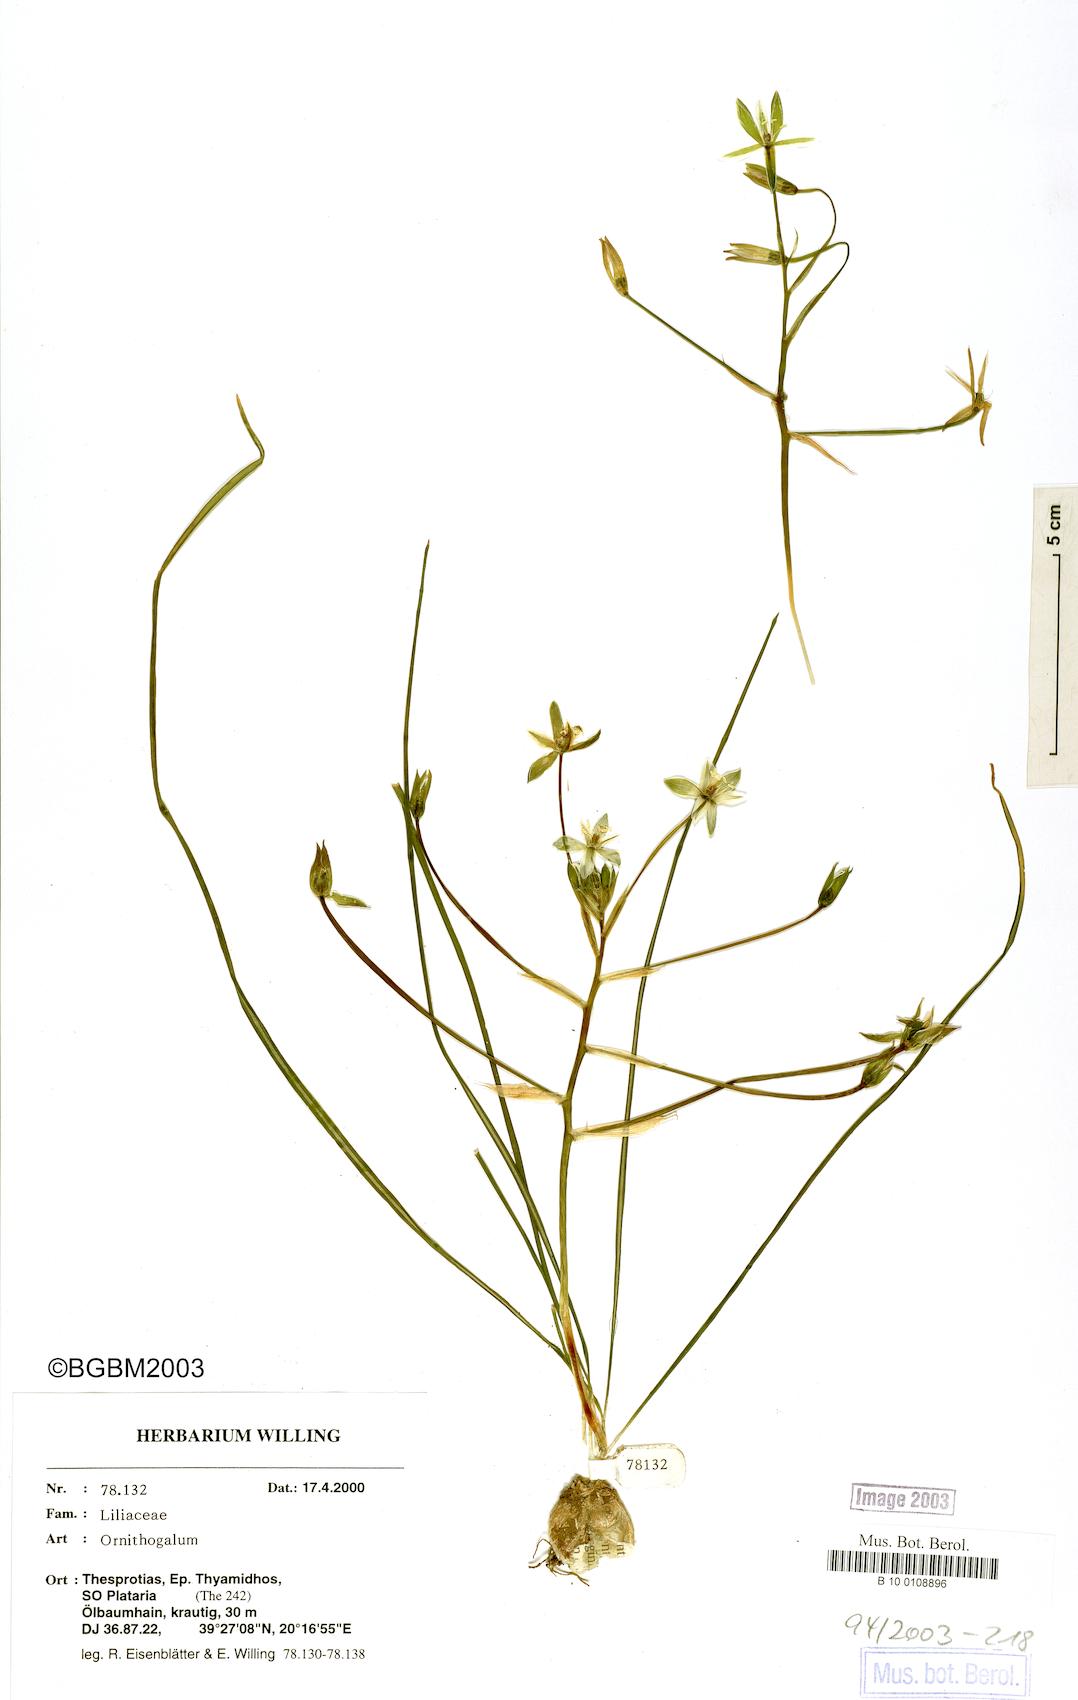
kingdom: Plantae
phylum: Tracheophyta
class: Liliopsida
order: Asparagales
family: Asparagaceae
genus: Ornithogalum
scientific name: Ornithogalum
